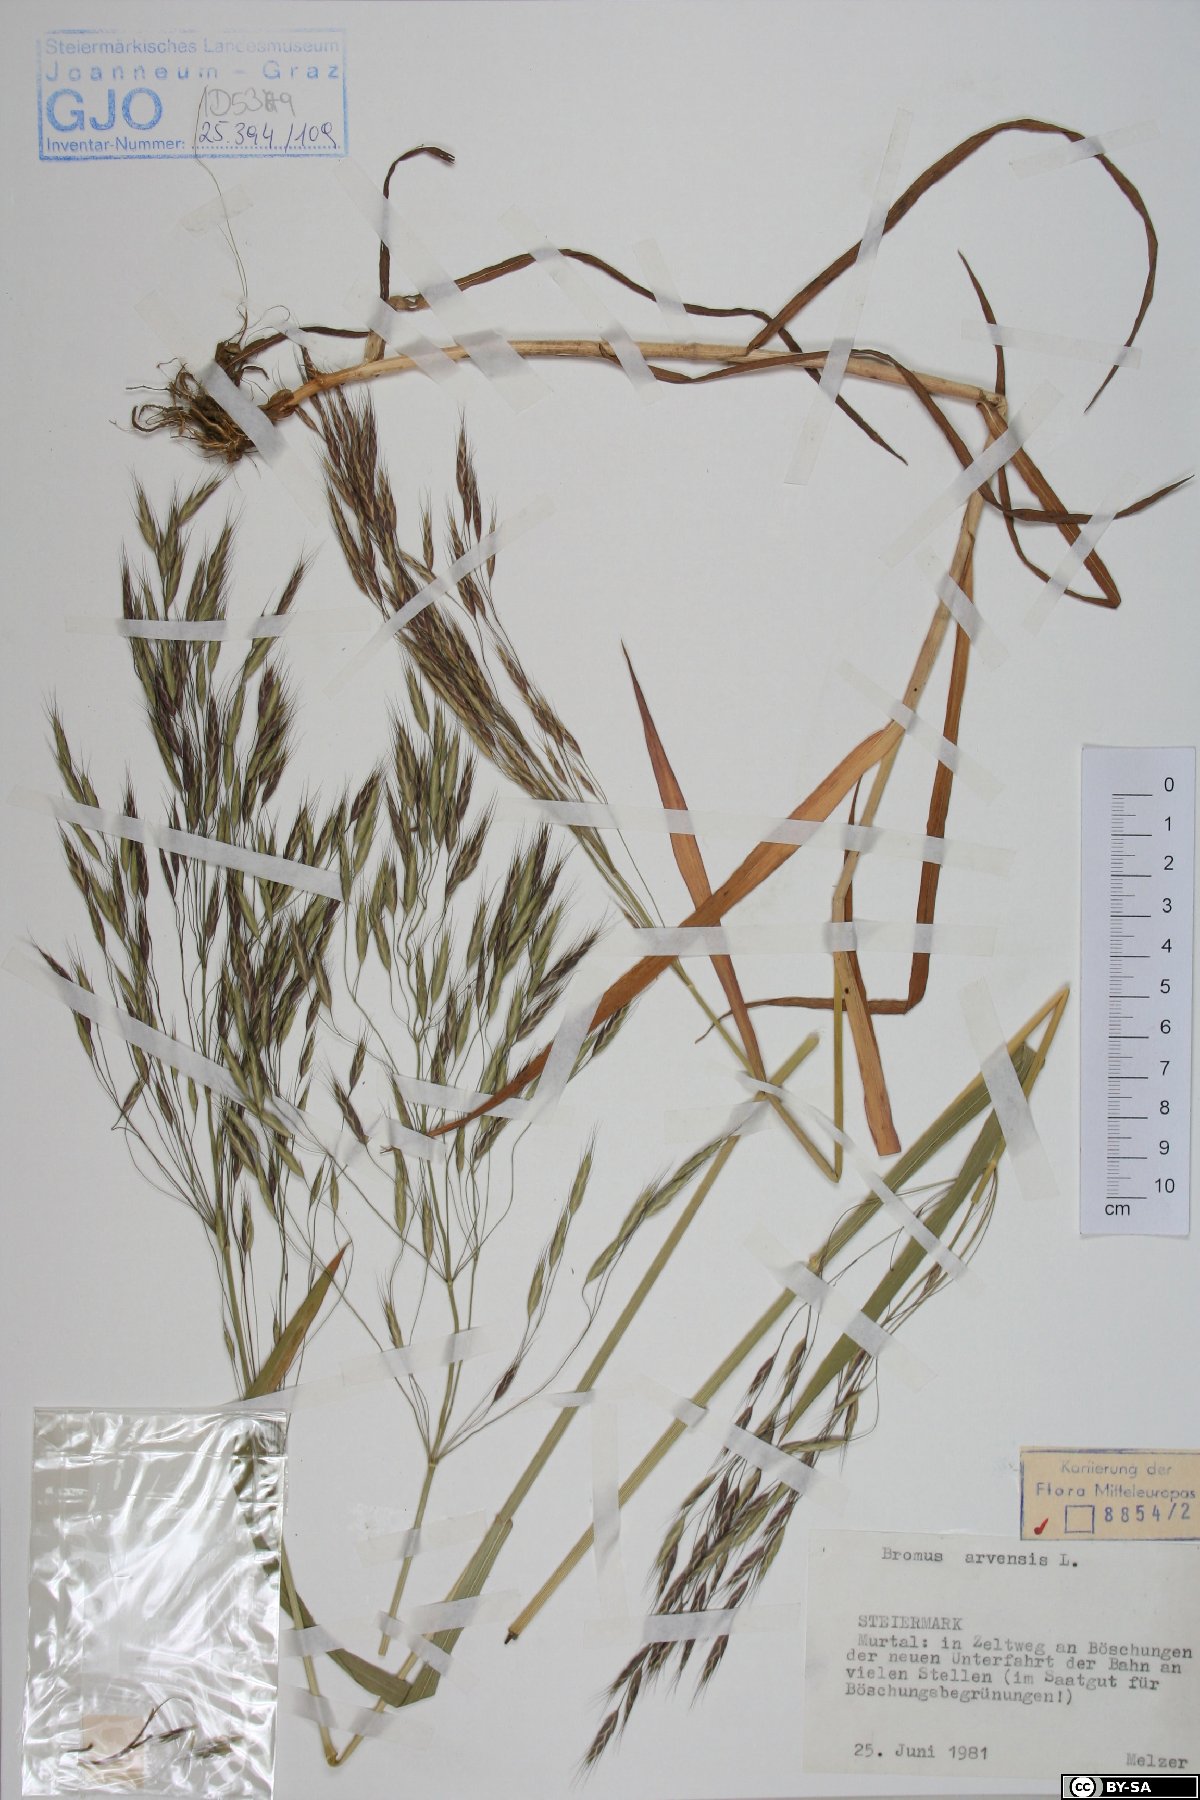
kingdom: Plantae
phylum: Tracheophyta
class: Liliopsida
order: Poales
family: Poaceae
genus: Bromus
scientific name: Bromus arvensis
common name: Field brome
